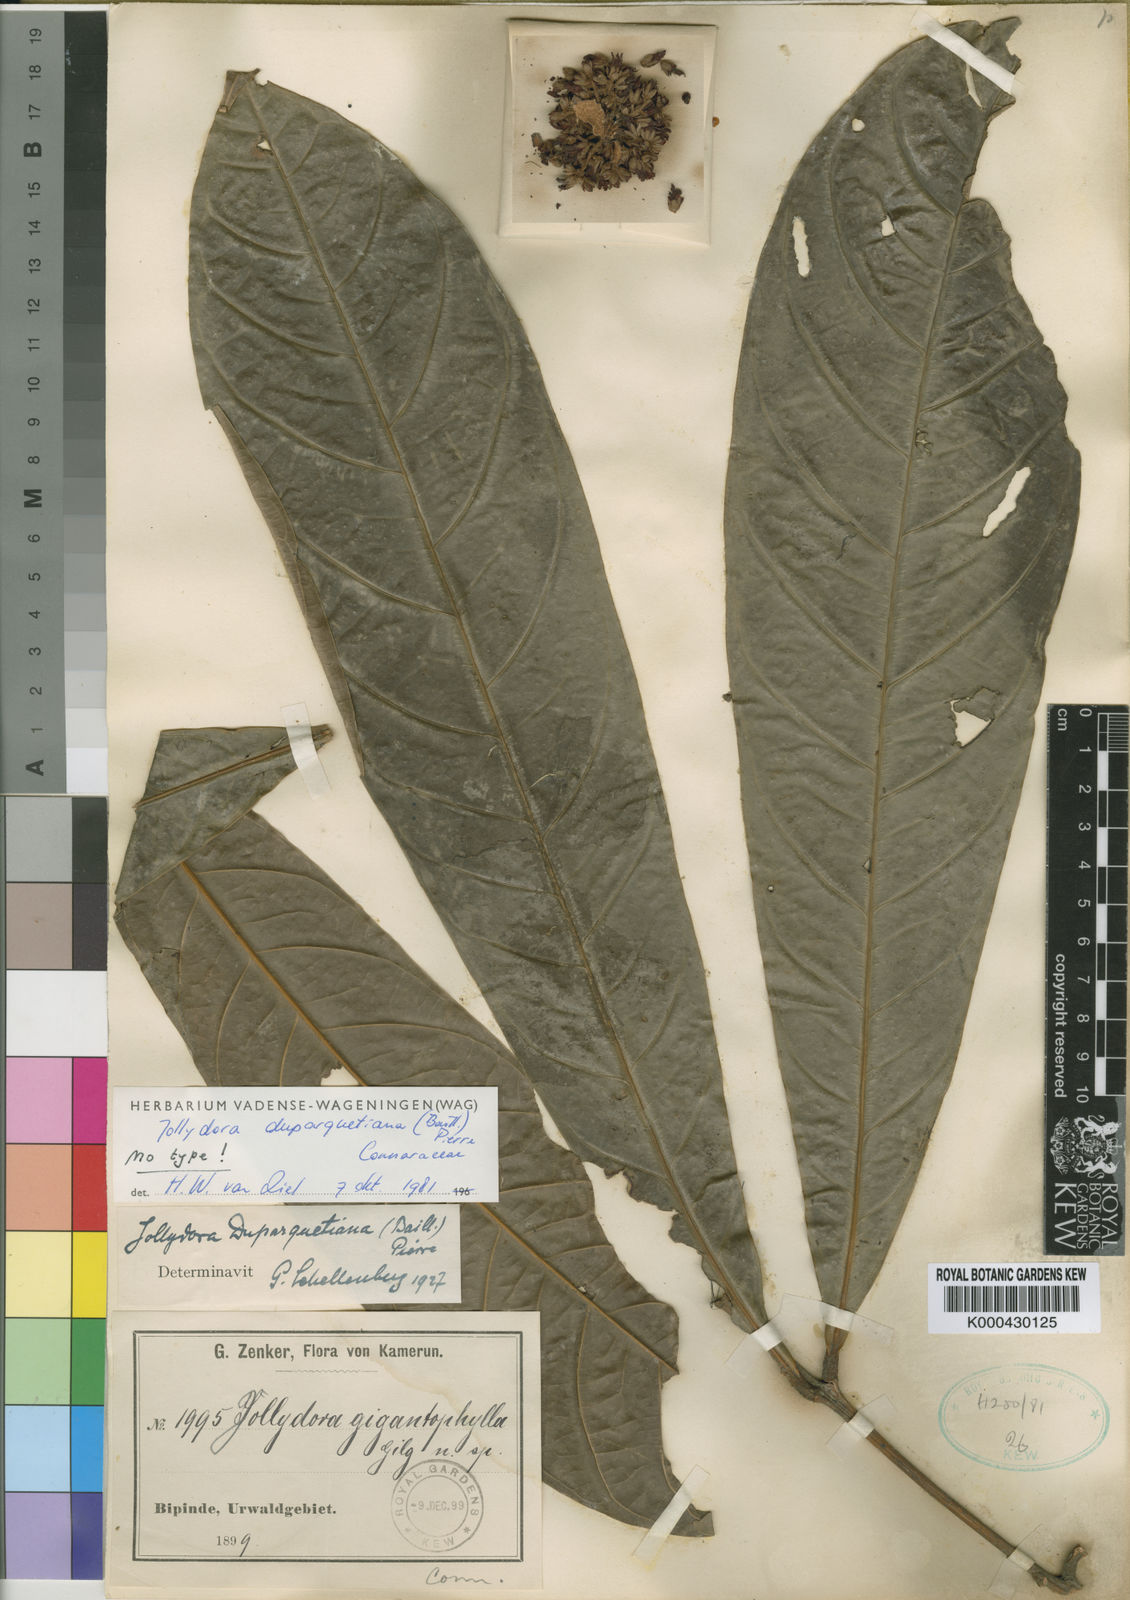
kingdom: Plantae
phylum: Tracheophyta
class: Magnoliopsida
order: Oxalidales
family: Connaraceae
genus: Jollydora
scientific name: Jollydora duparquetiana
